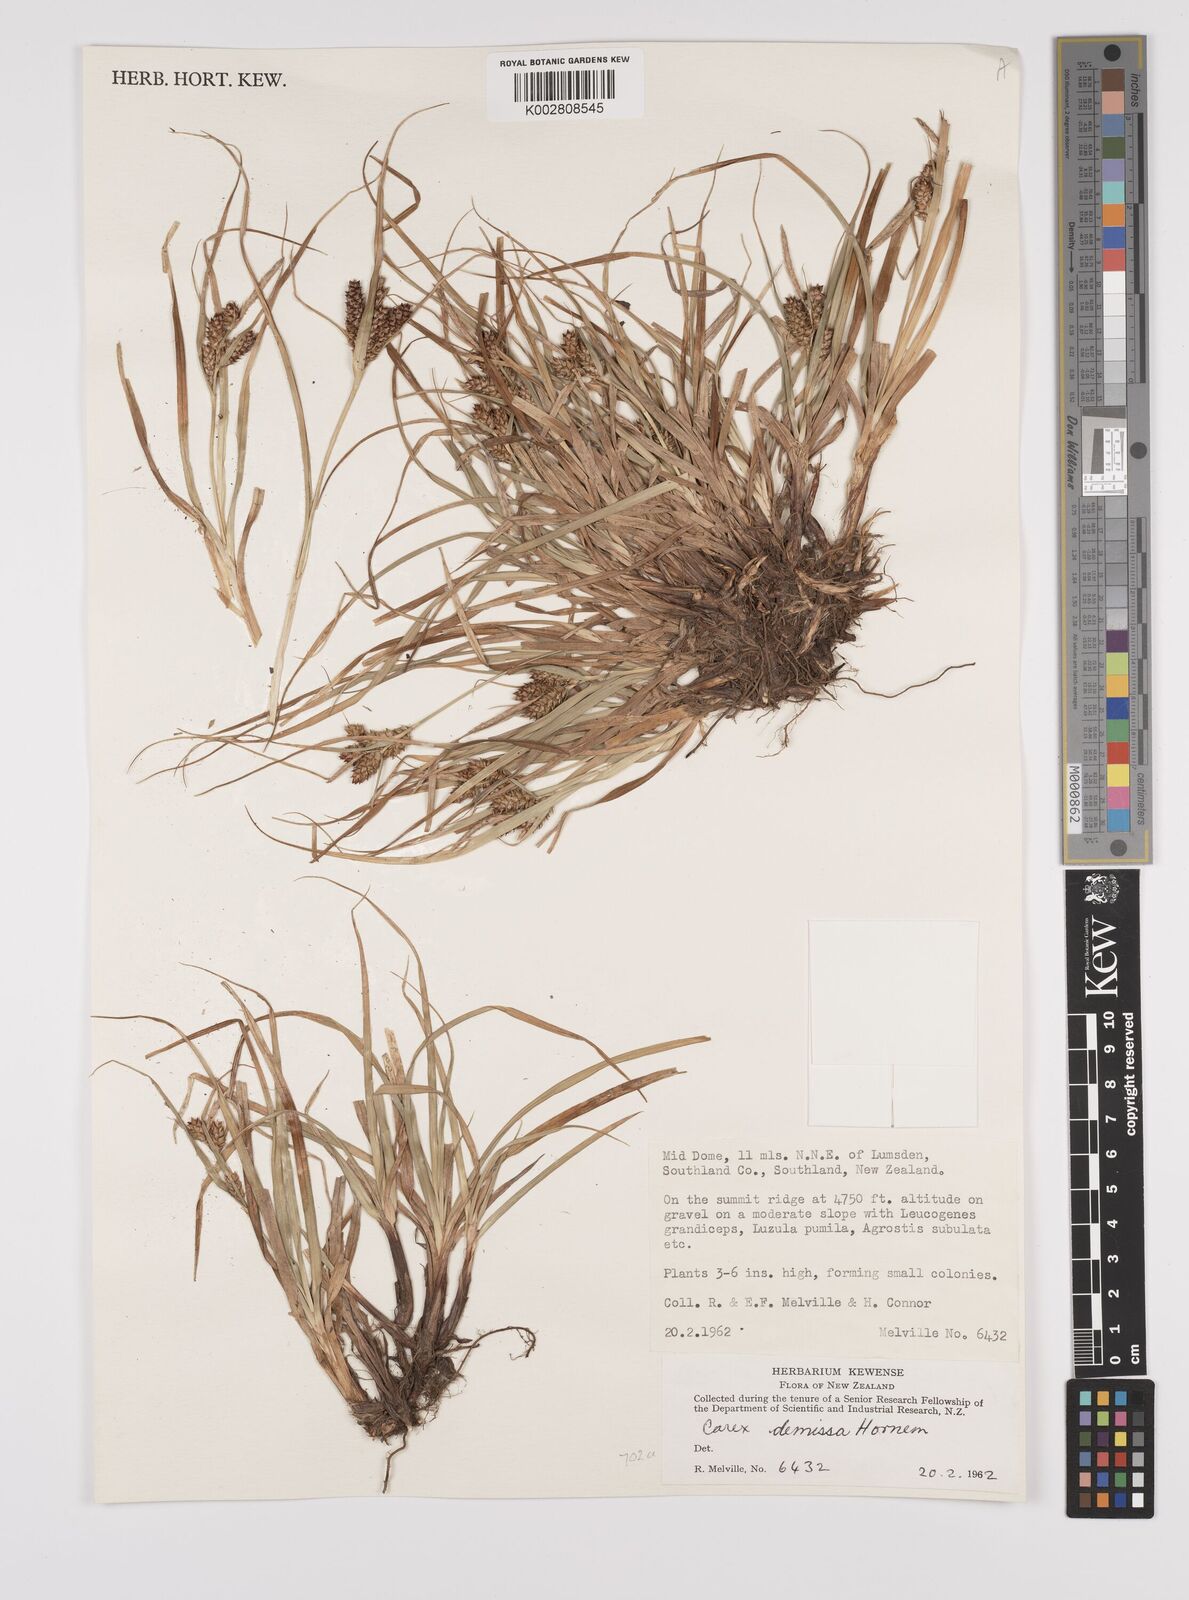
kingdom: Plantae
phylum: Tracheophyta
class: Liliopsida
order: Poales
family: Cyperaceae
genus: Carex
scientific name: Carex demissa
